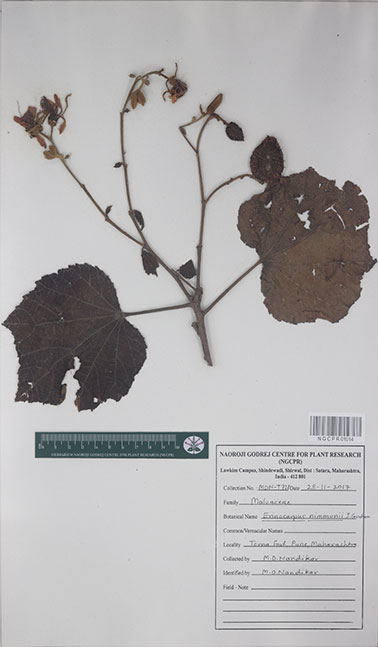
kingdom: Plantae
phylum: Tracheophyta
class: Magnoliopsida
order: Malvales
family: Malvaceae
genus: Erinocarpus
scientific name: Erinocarpus nimmonii
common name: Nimmo's erinocarpus
